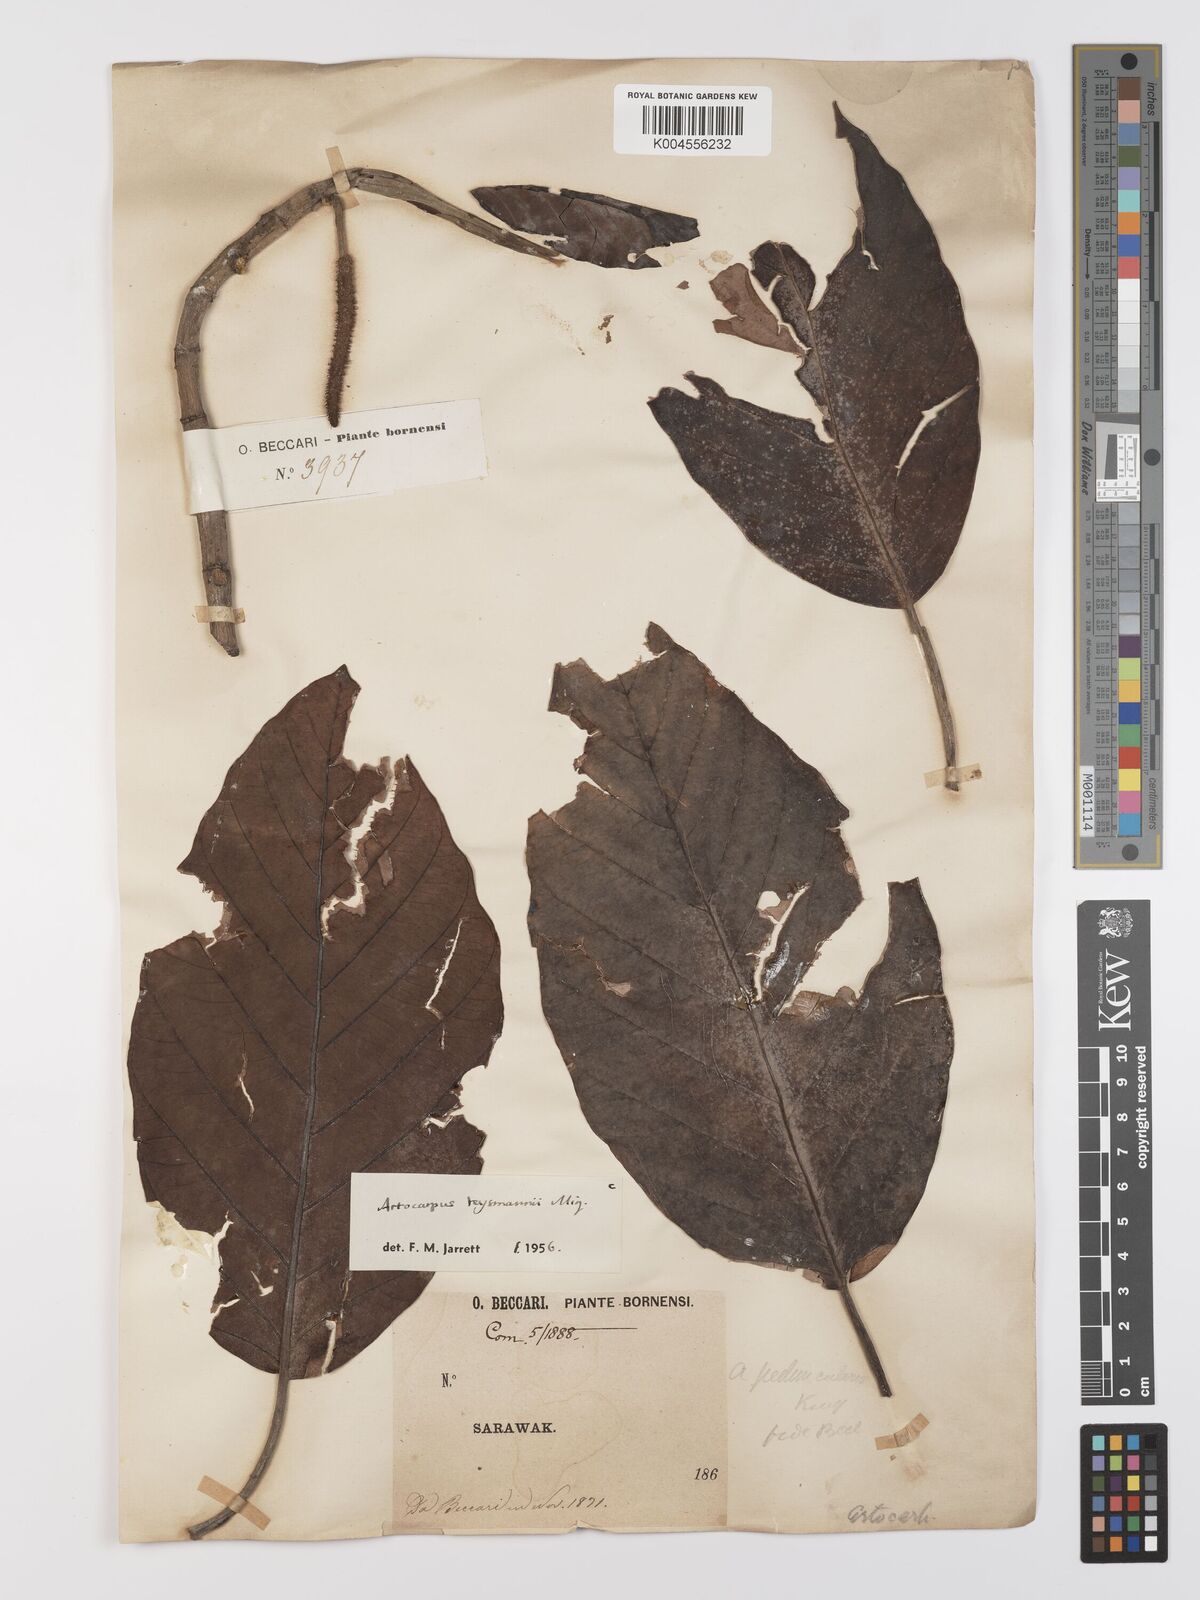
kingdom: Plantae
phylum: Tracheophyta
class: Magnoliopsida
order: Rosales
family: Moraceae
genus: Artocarpus
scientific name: Artocarpus teysmannii
